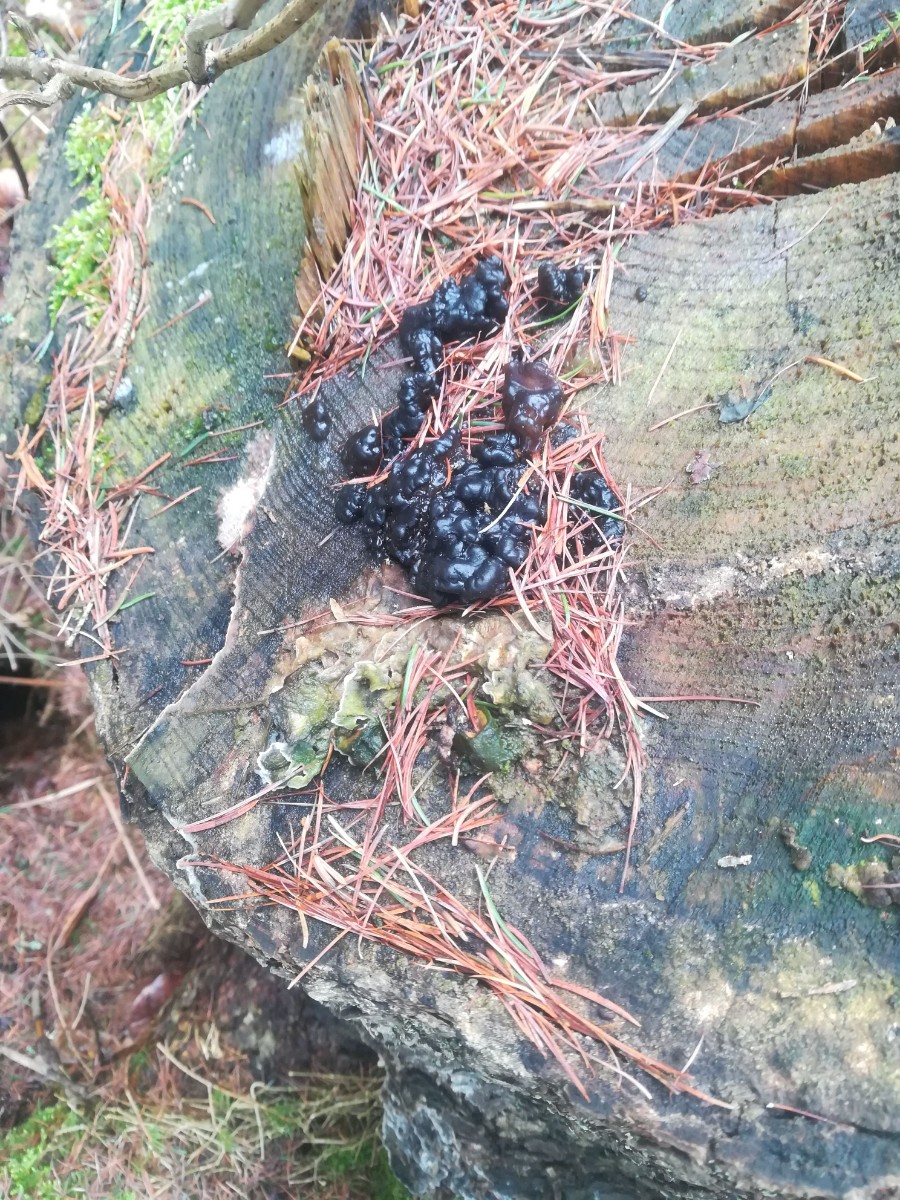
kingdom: Fungi
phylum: Basidiomycota
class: Agaricomycetes
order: Auriculariales
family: Auriculariaceae
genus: Exidia
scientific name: Exidia pithya
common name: gran-bævretop
